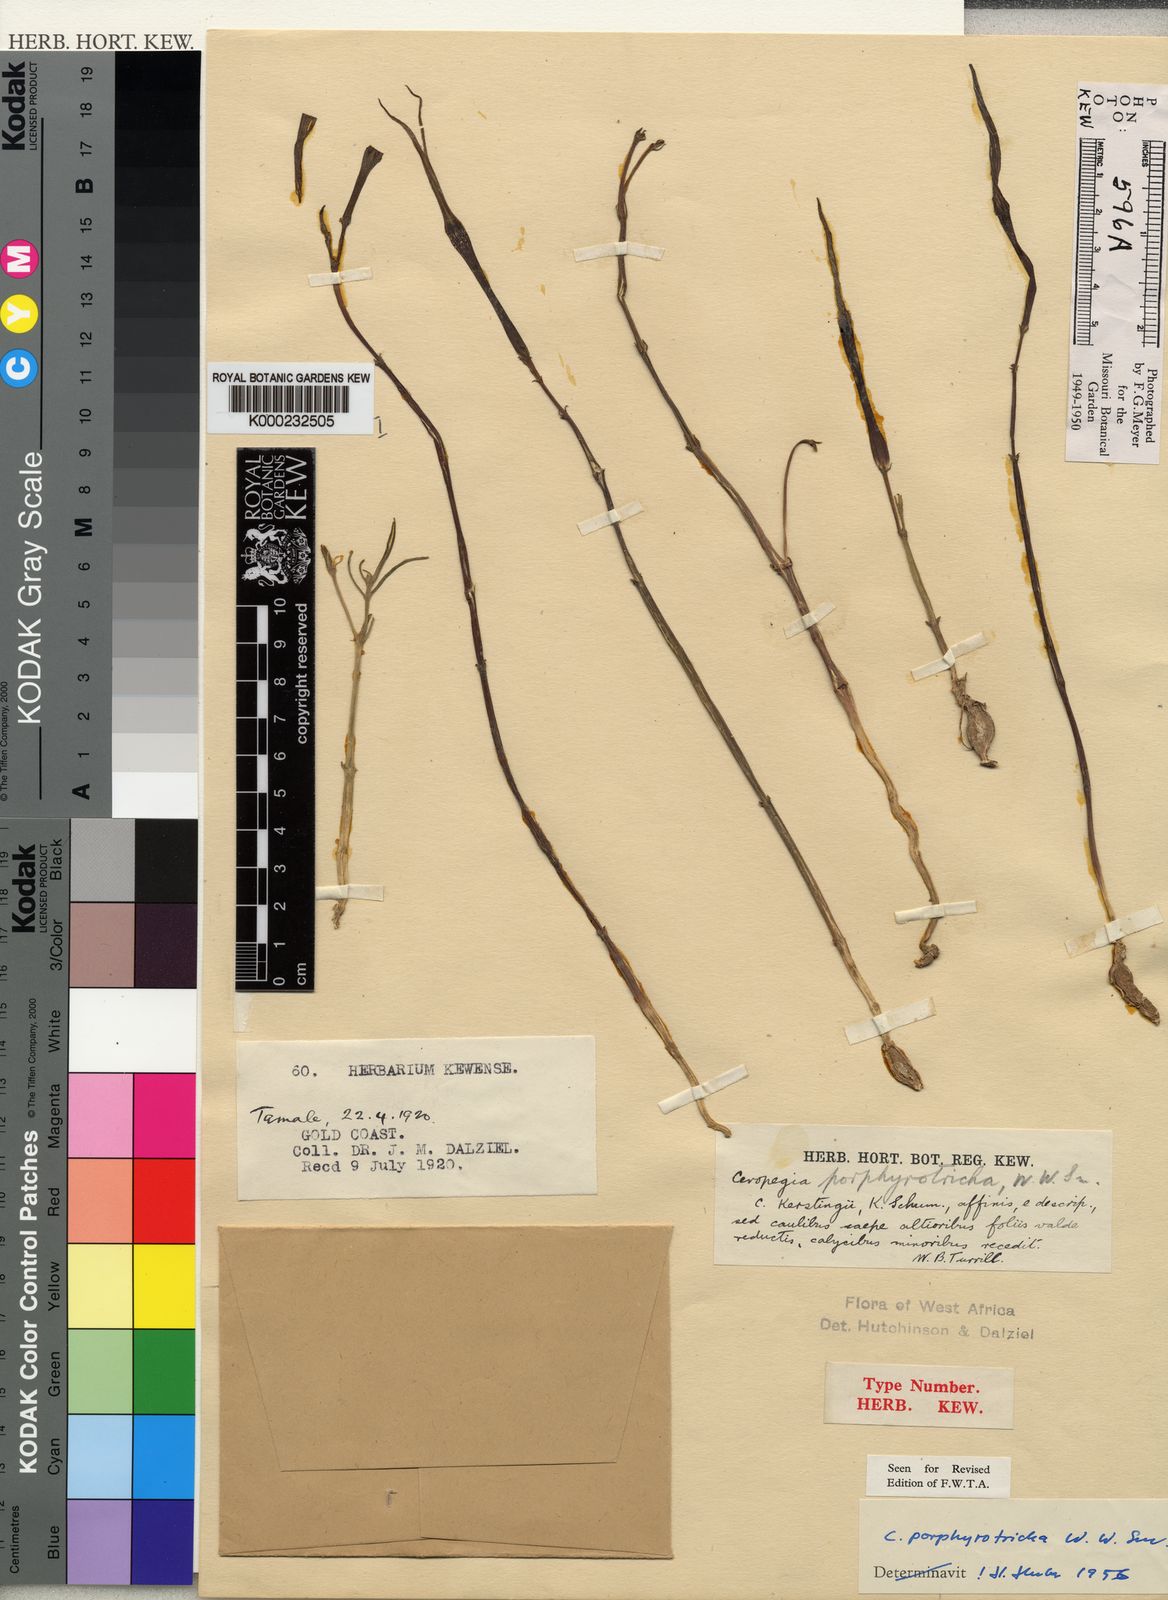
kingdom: Plantae
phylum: Tracheophyta
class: Magnoliopsida
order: Gentianales
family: Apocynaceae
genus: Ceropegia
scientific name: Ceropegia campanulata
